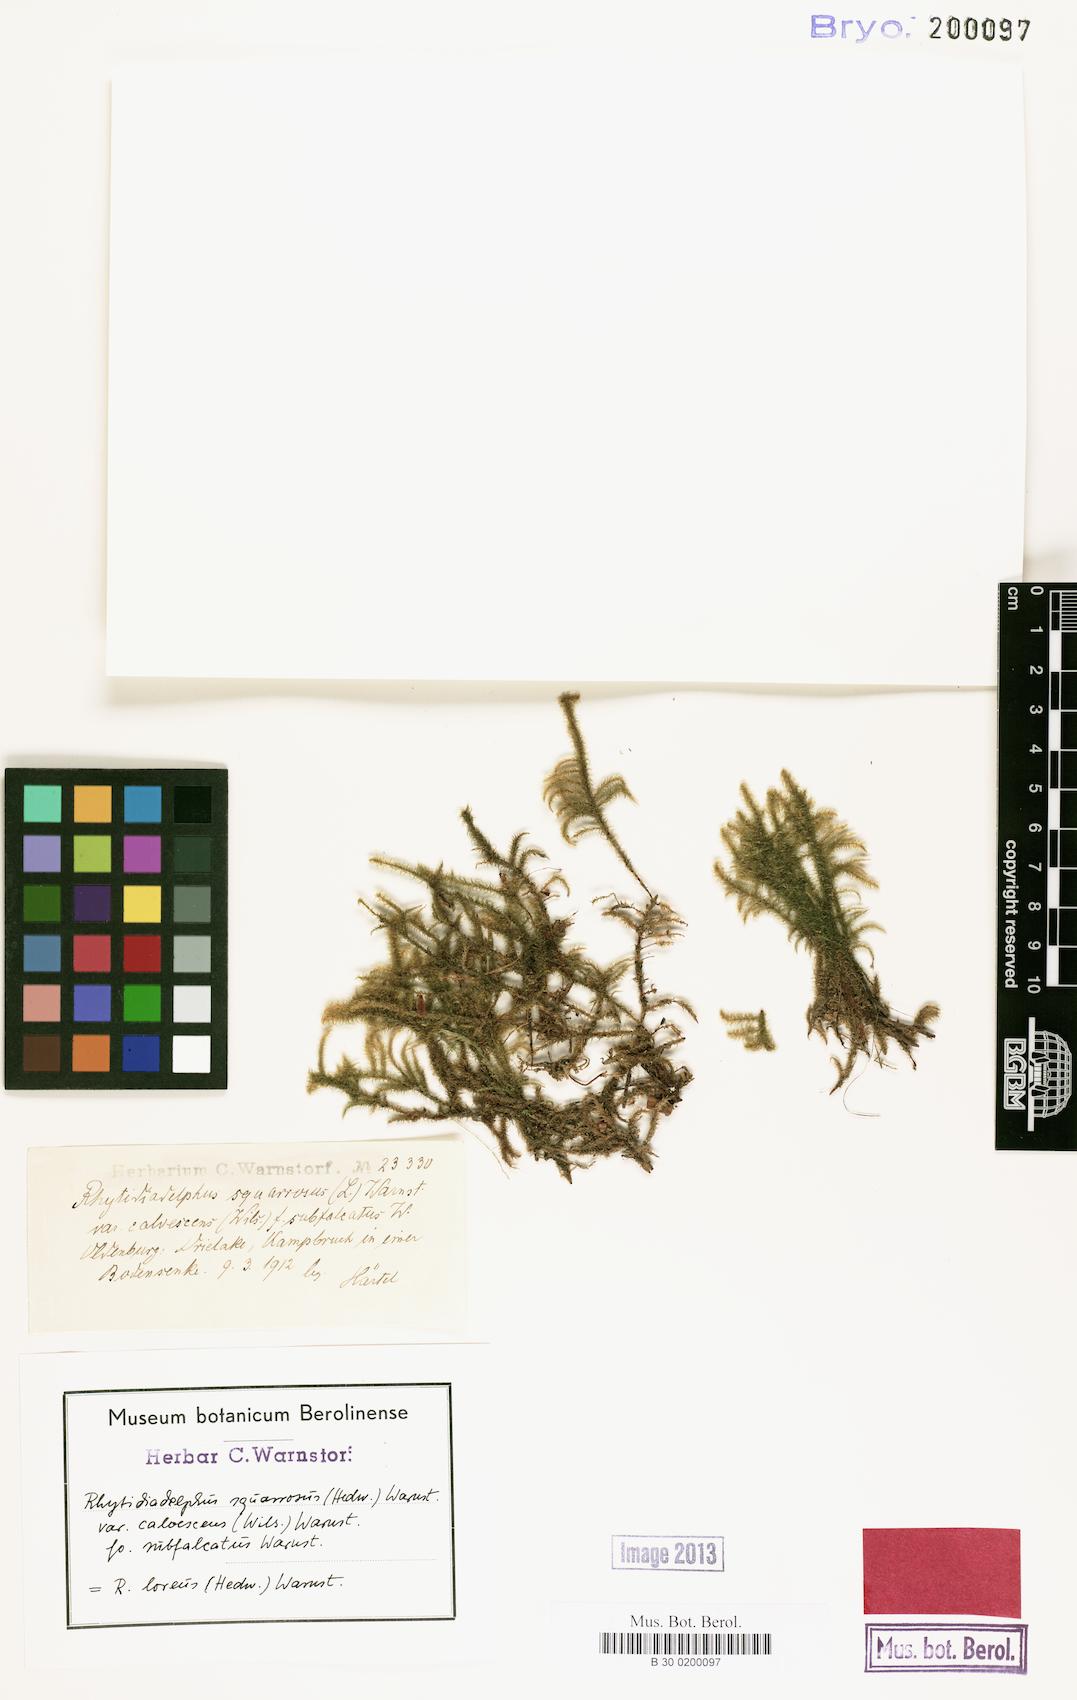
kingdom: Plantae
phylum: Bryophyta
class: Bryopsida
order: Hypnales
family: Hylocomiaceae
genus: Rhytidiadelphus
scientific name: Rhytidiadelphus squarrosus
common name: Springy turf-moss
